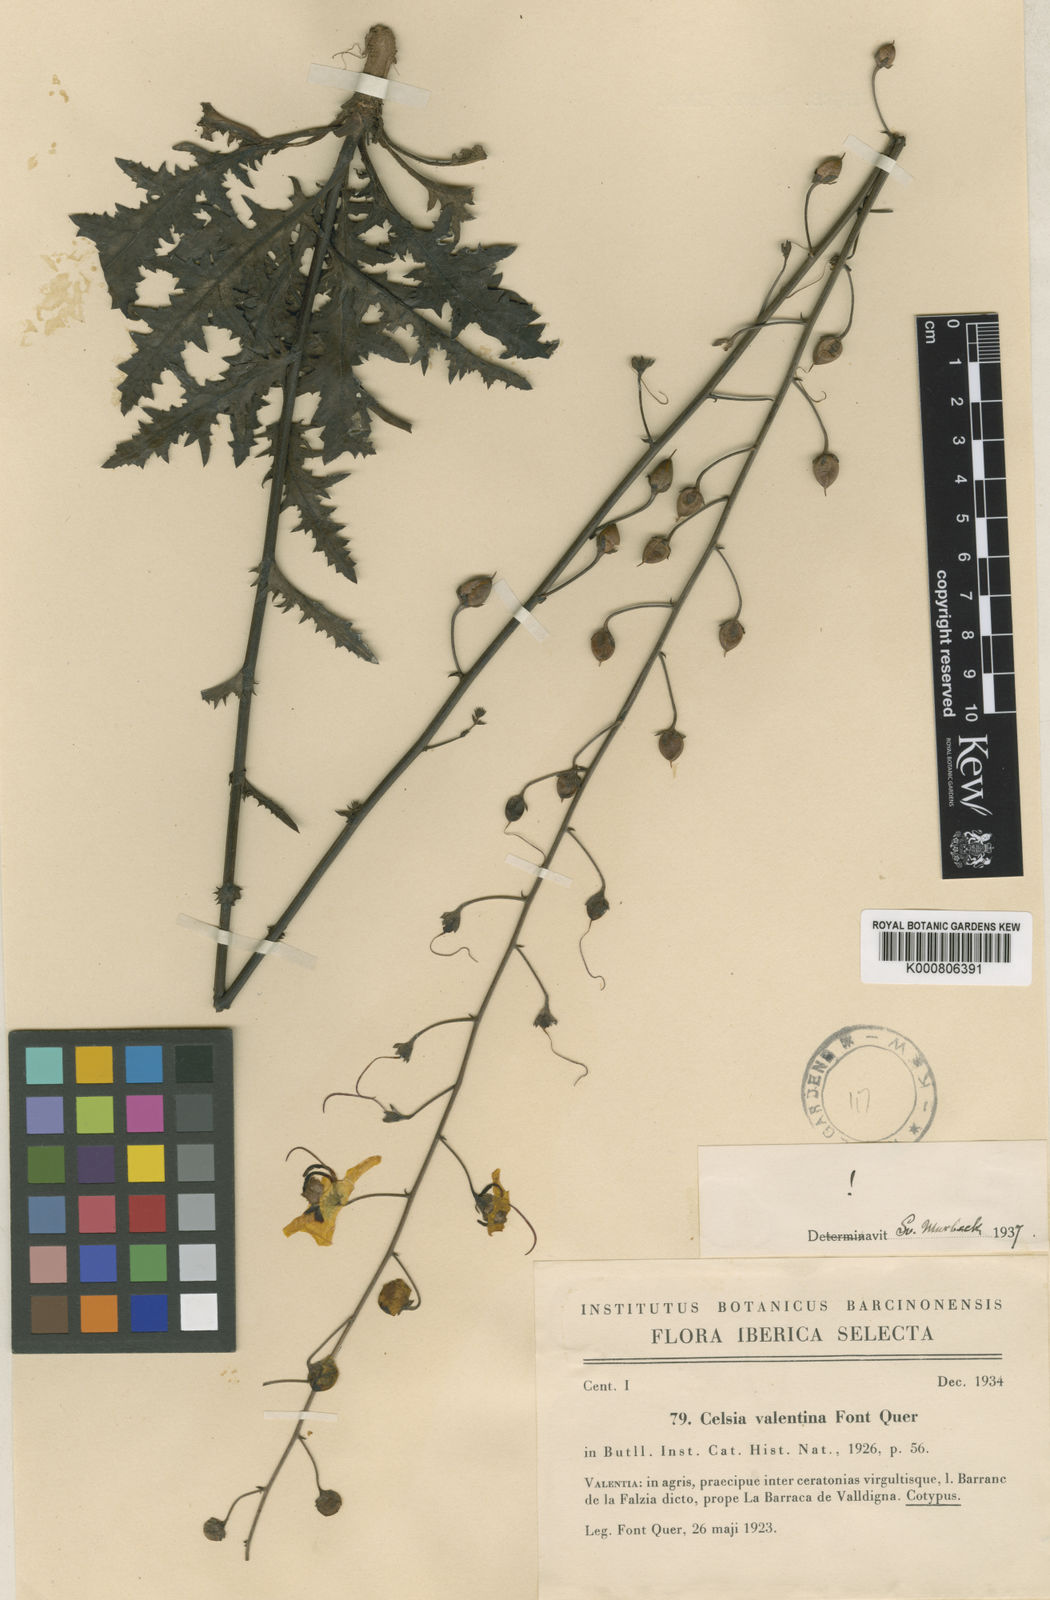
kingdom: Plantae
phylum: Tracheophyta
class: Magnoliopsida
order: Lamiales
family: Scrophulariaceae
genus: Verbascum
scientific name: Verbascum barnadesii
